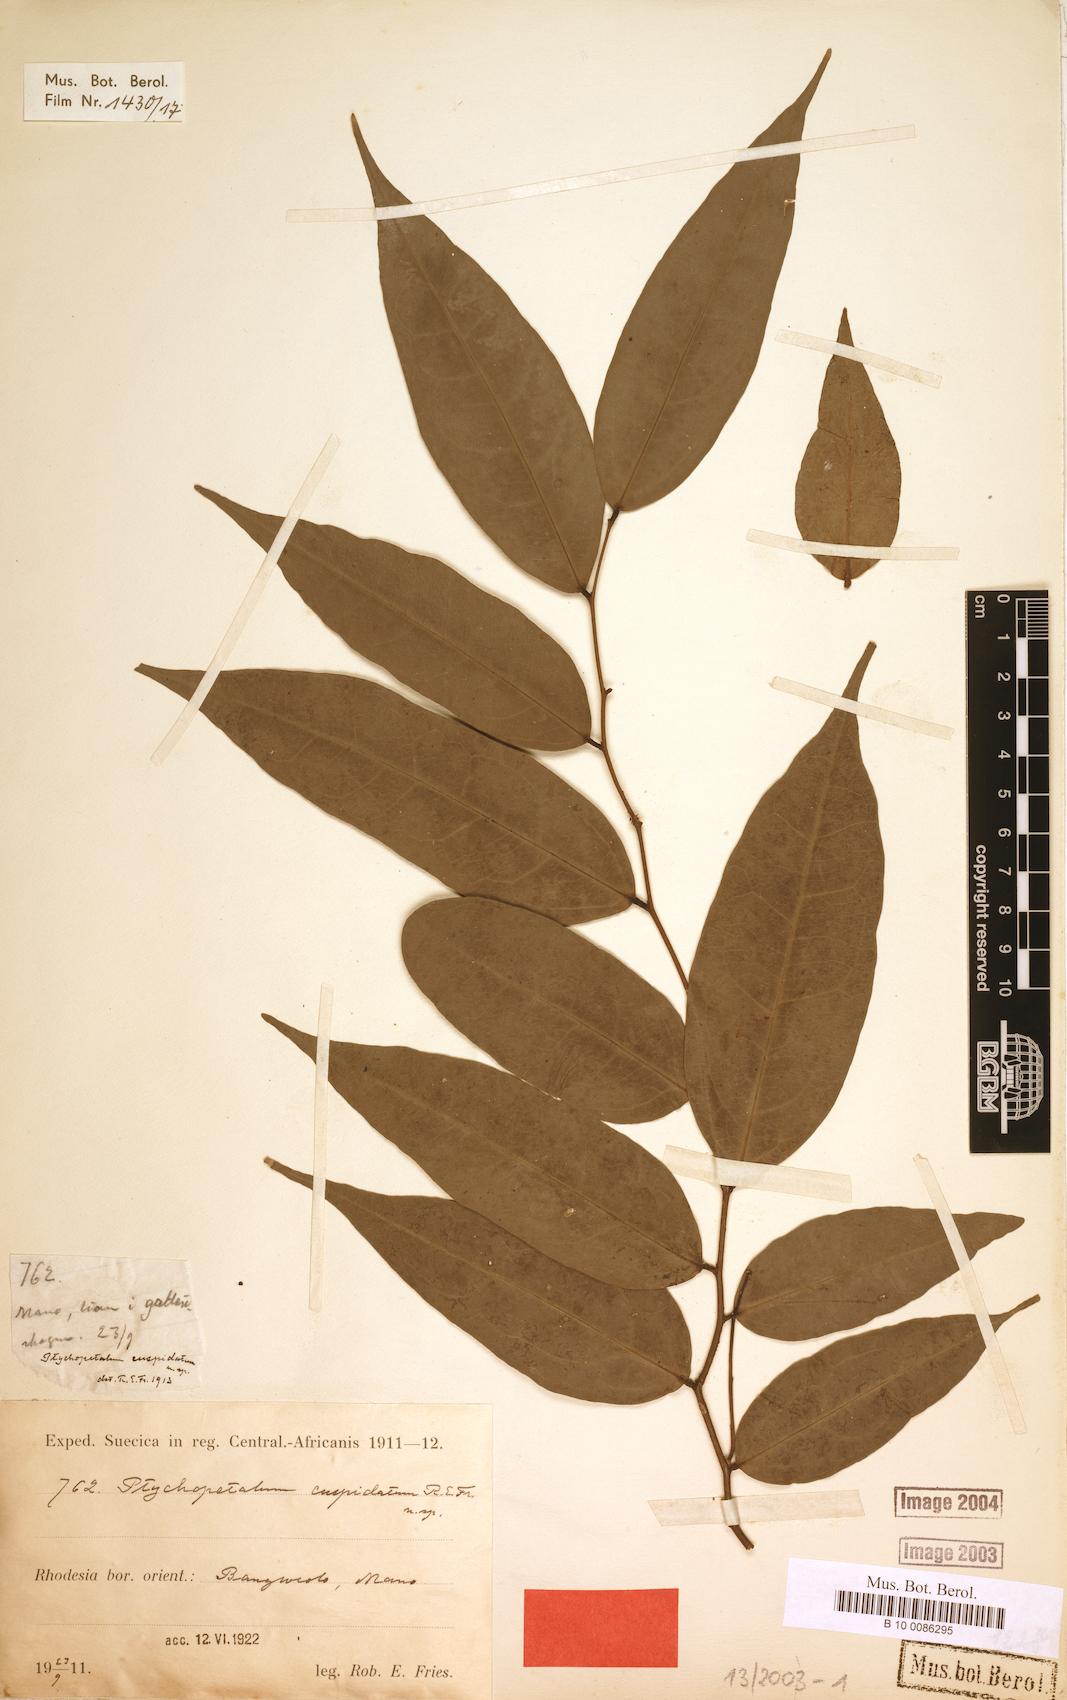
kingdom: Plantae
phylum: Tracheophyta
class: Magnoliopsida
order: Metteniusales
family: Metteniusaceae
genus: Rhaphiostylis
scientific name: Rhaphiostylis beninensis
